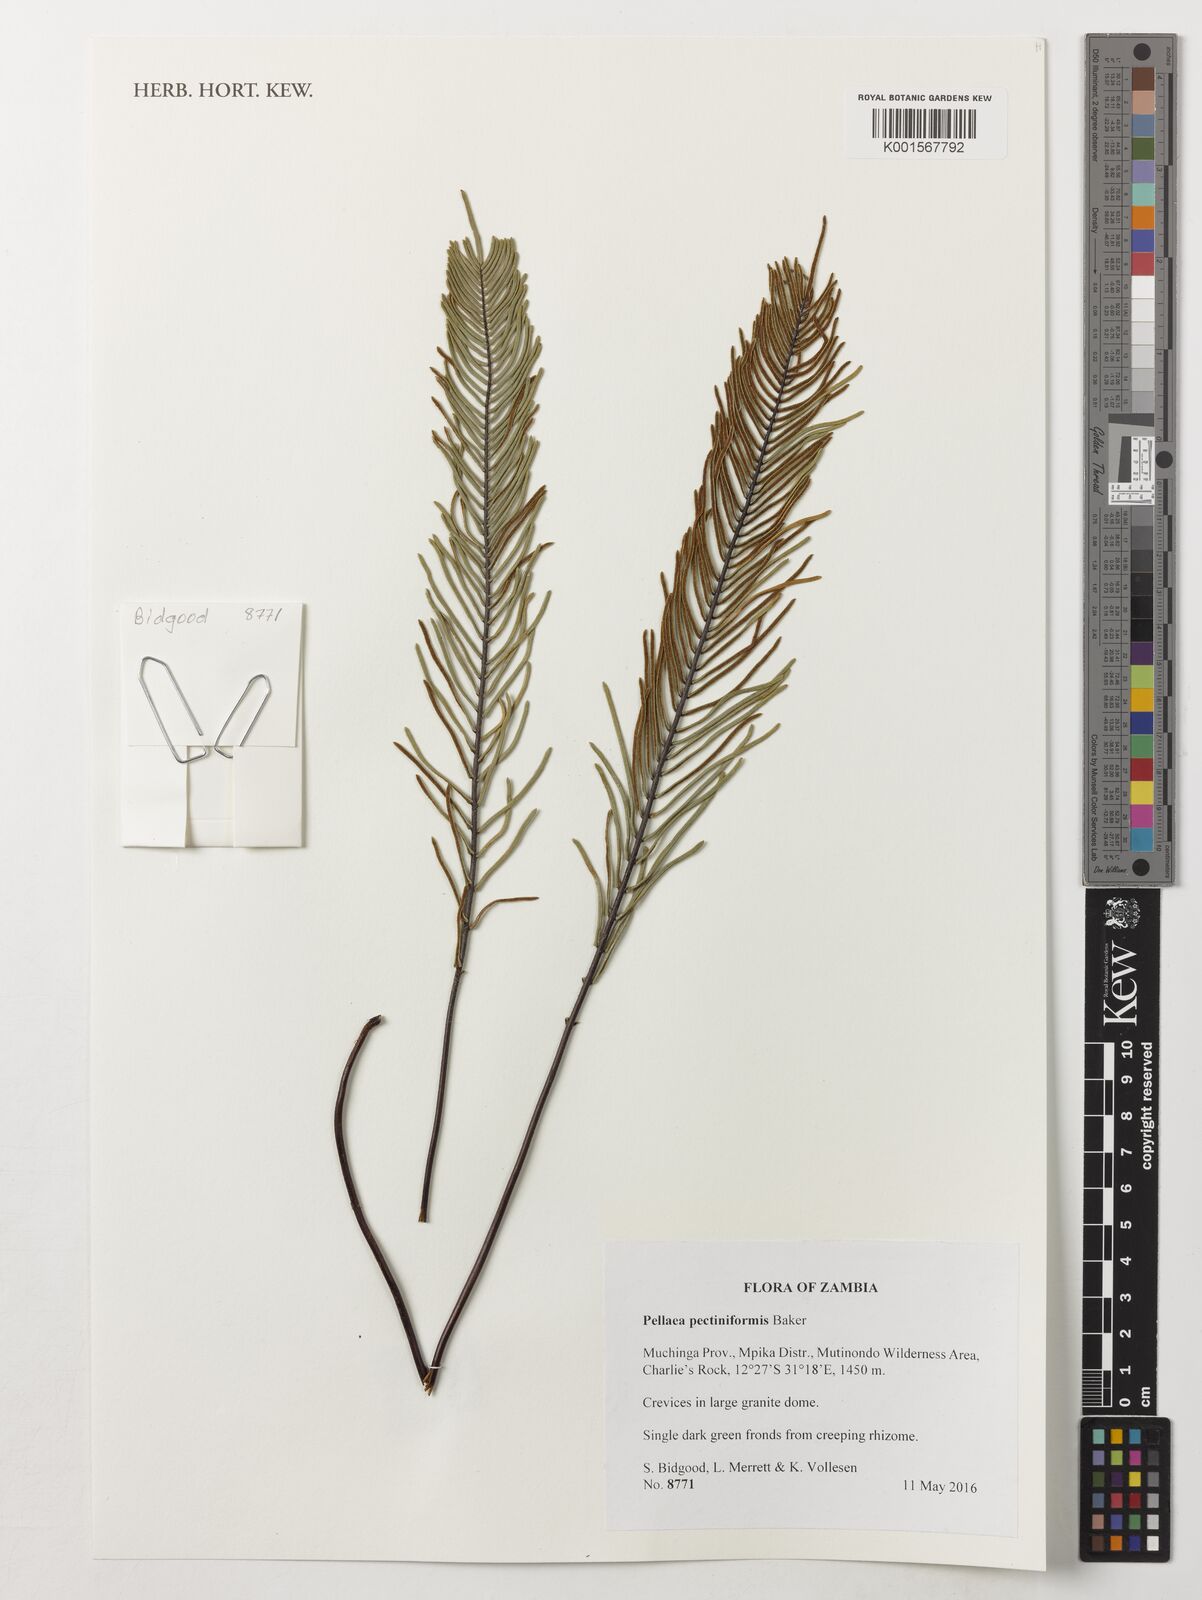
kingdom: Plantae
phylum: Tracheophyta
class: Polypodiopsida
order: Polypodiales
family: Pteridaceae
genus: Pellaea
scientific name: Pellaea pectiniformis
